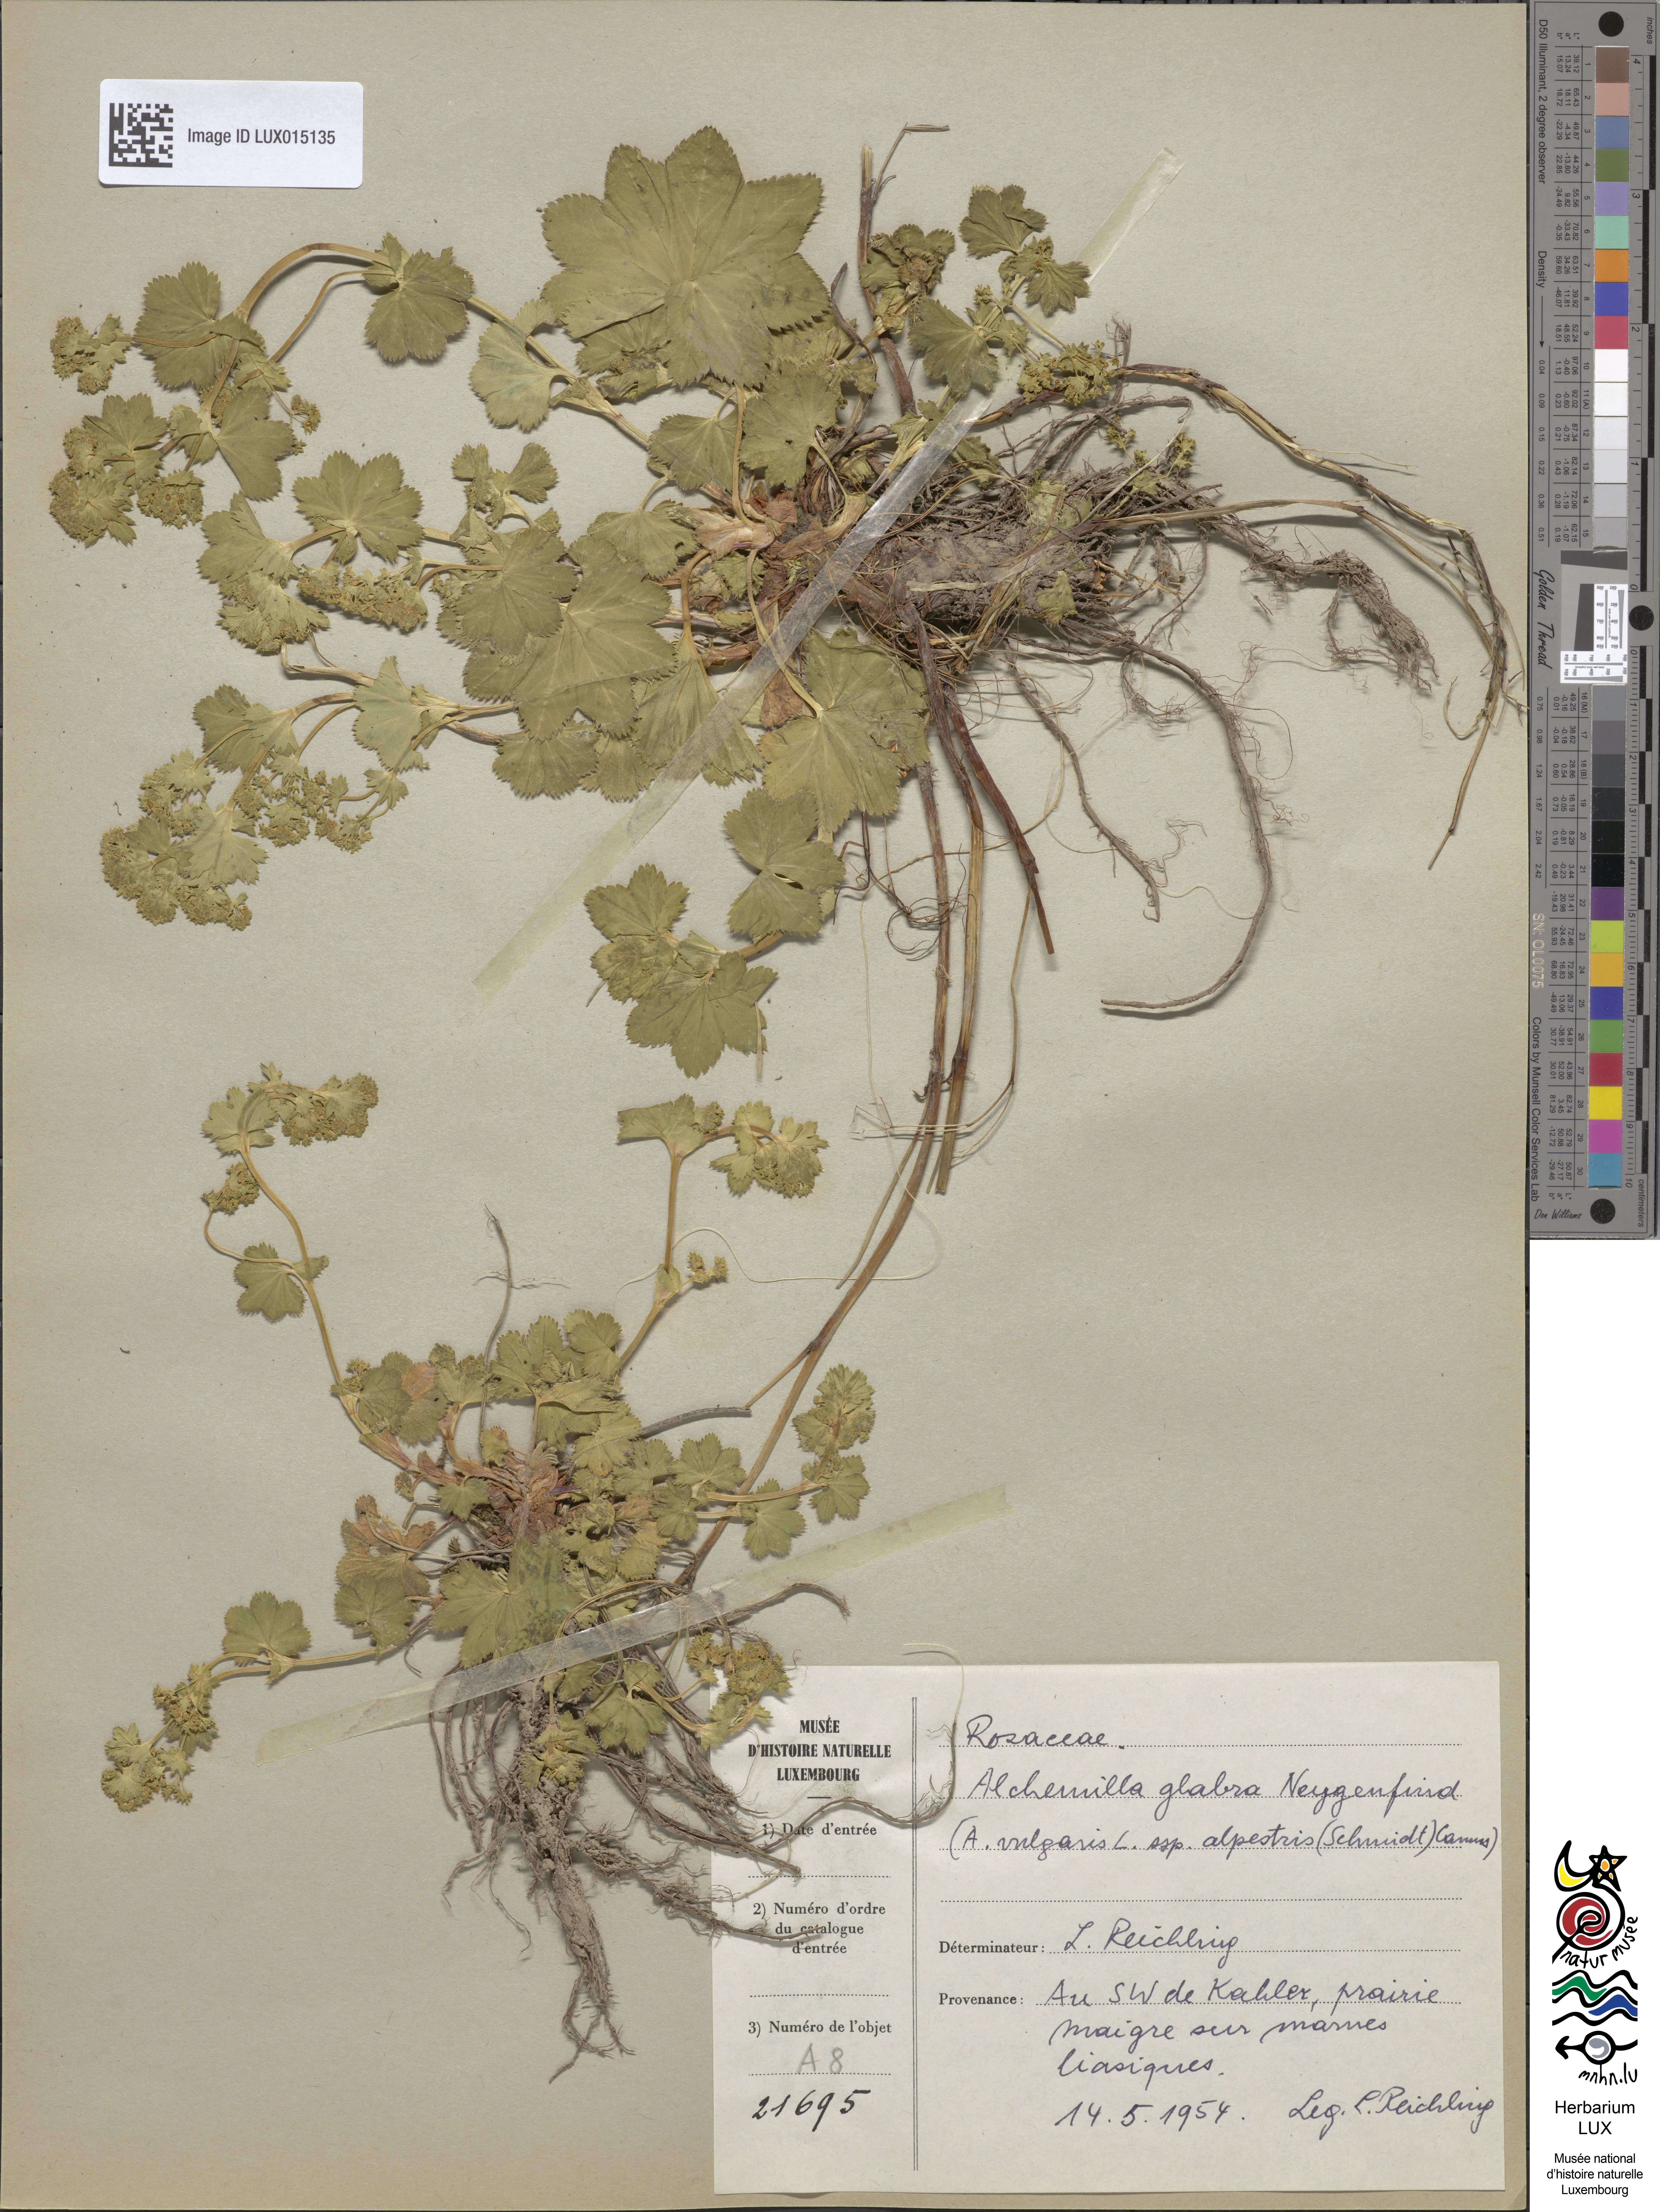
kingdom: Plantae
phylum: Tracheophyta
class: Magnoliopsida
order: Rosales
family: Rosaceae
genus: Alchemilla
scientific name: Alchemilla glabra
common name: Smooth lady's-mantle
